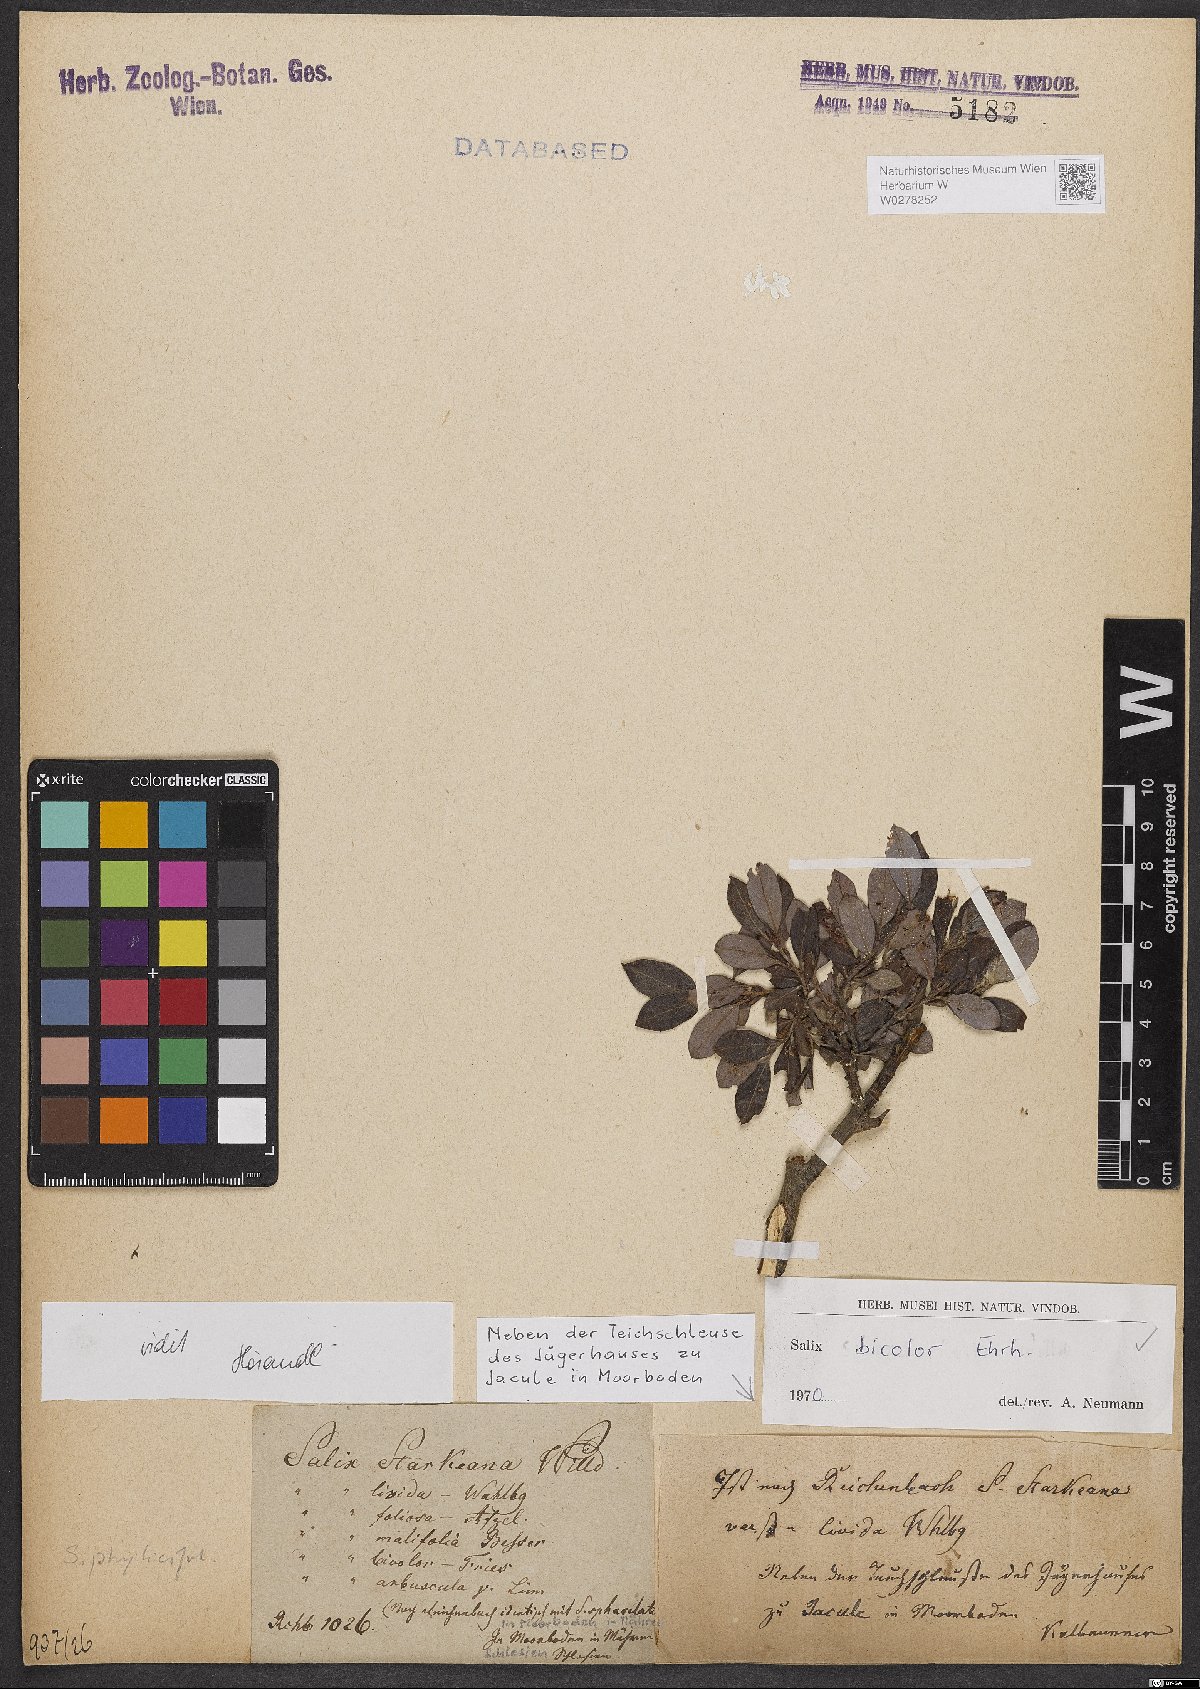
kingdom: Plantae
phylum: Tracheophyta
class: Magnoliopsida
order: Malpighiales
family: Salicaceae
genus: Salix
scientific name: Salix bicolor
